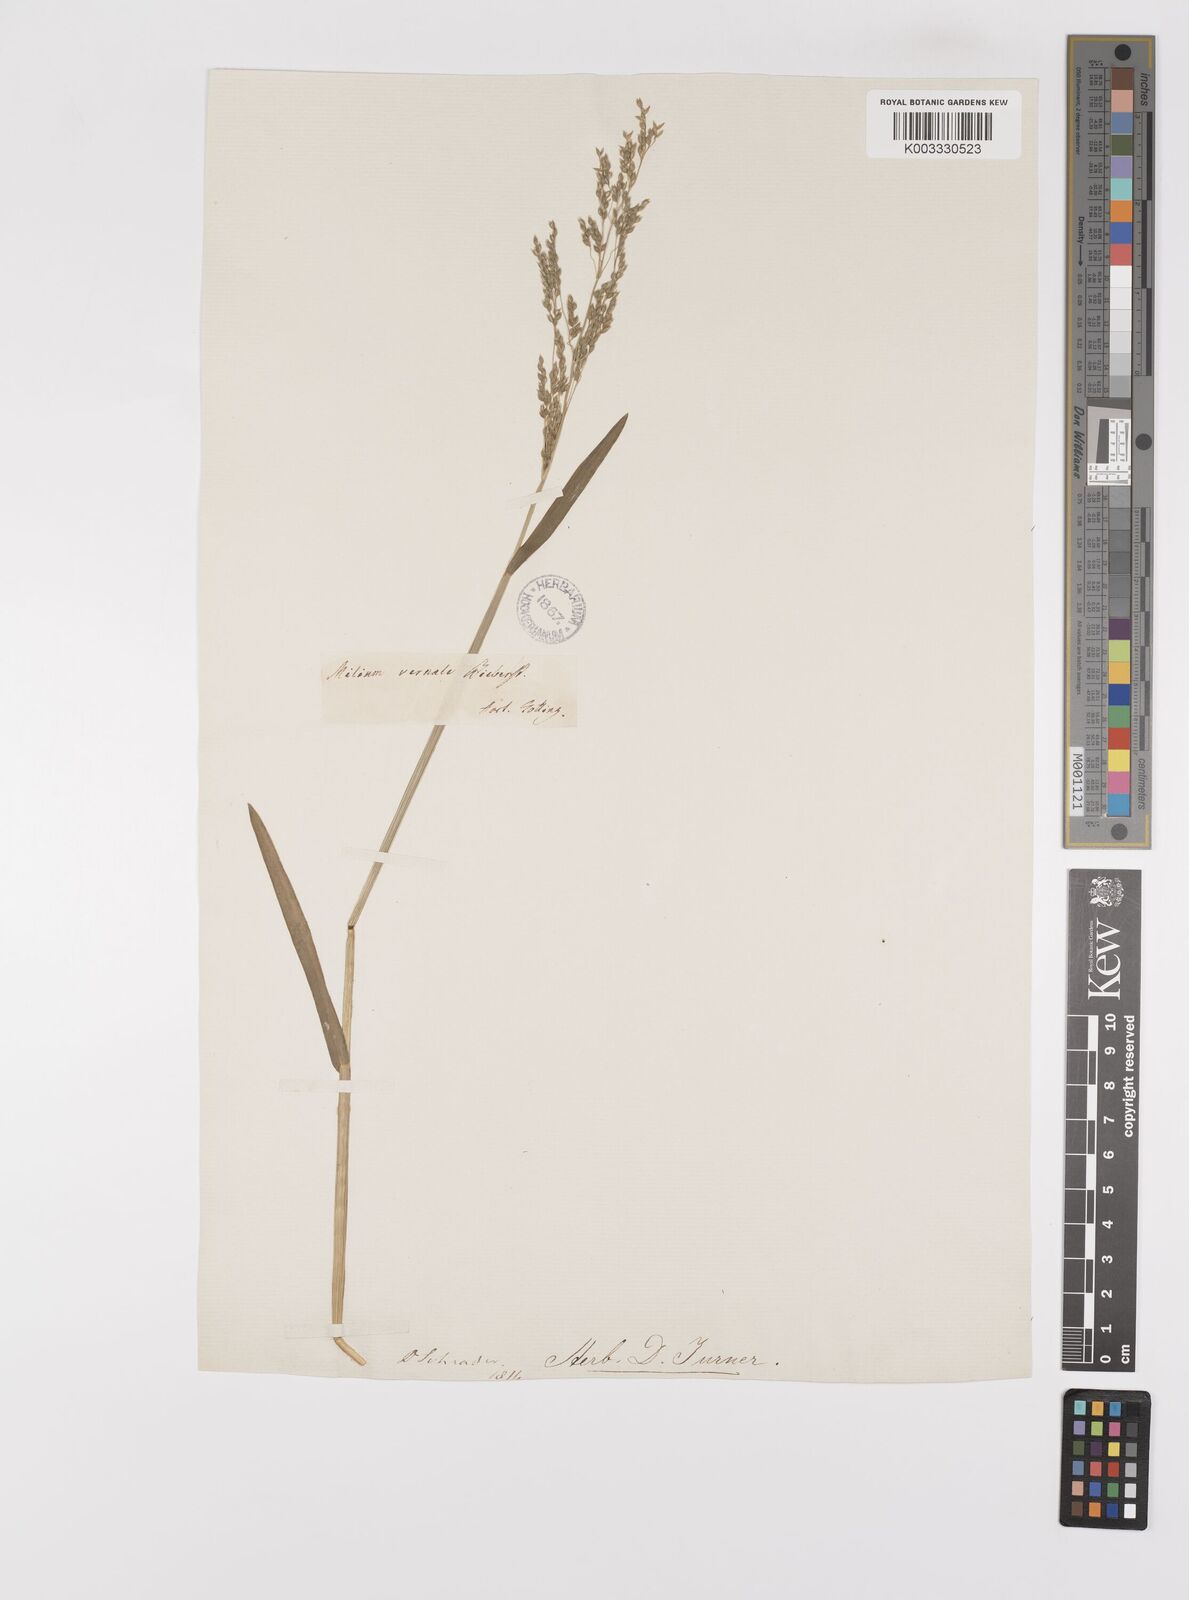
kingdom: Plantae
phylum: Tracheophyta
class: Liliopsida
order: Poales
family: Poaceae
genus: Milium
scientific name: Milium vernale
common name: Early millet
